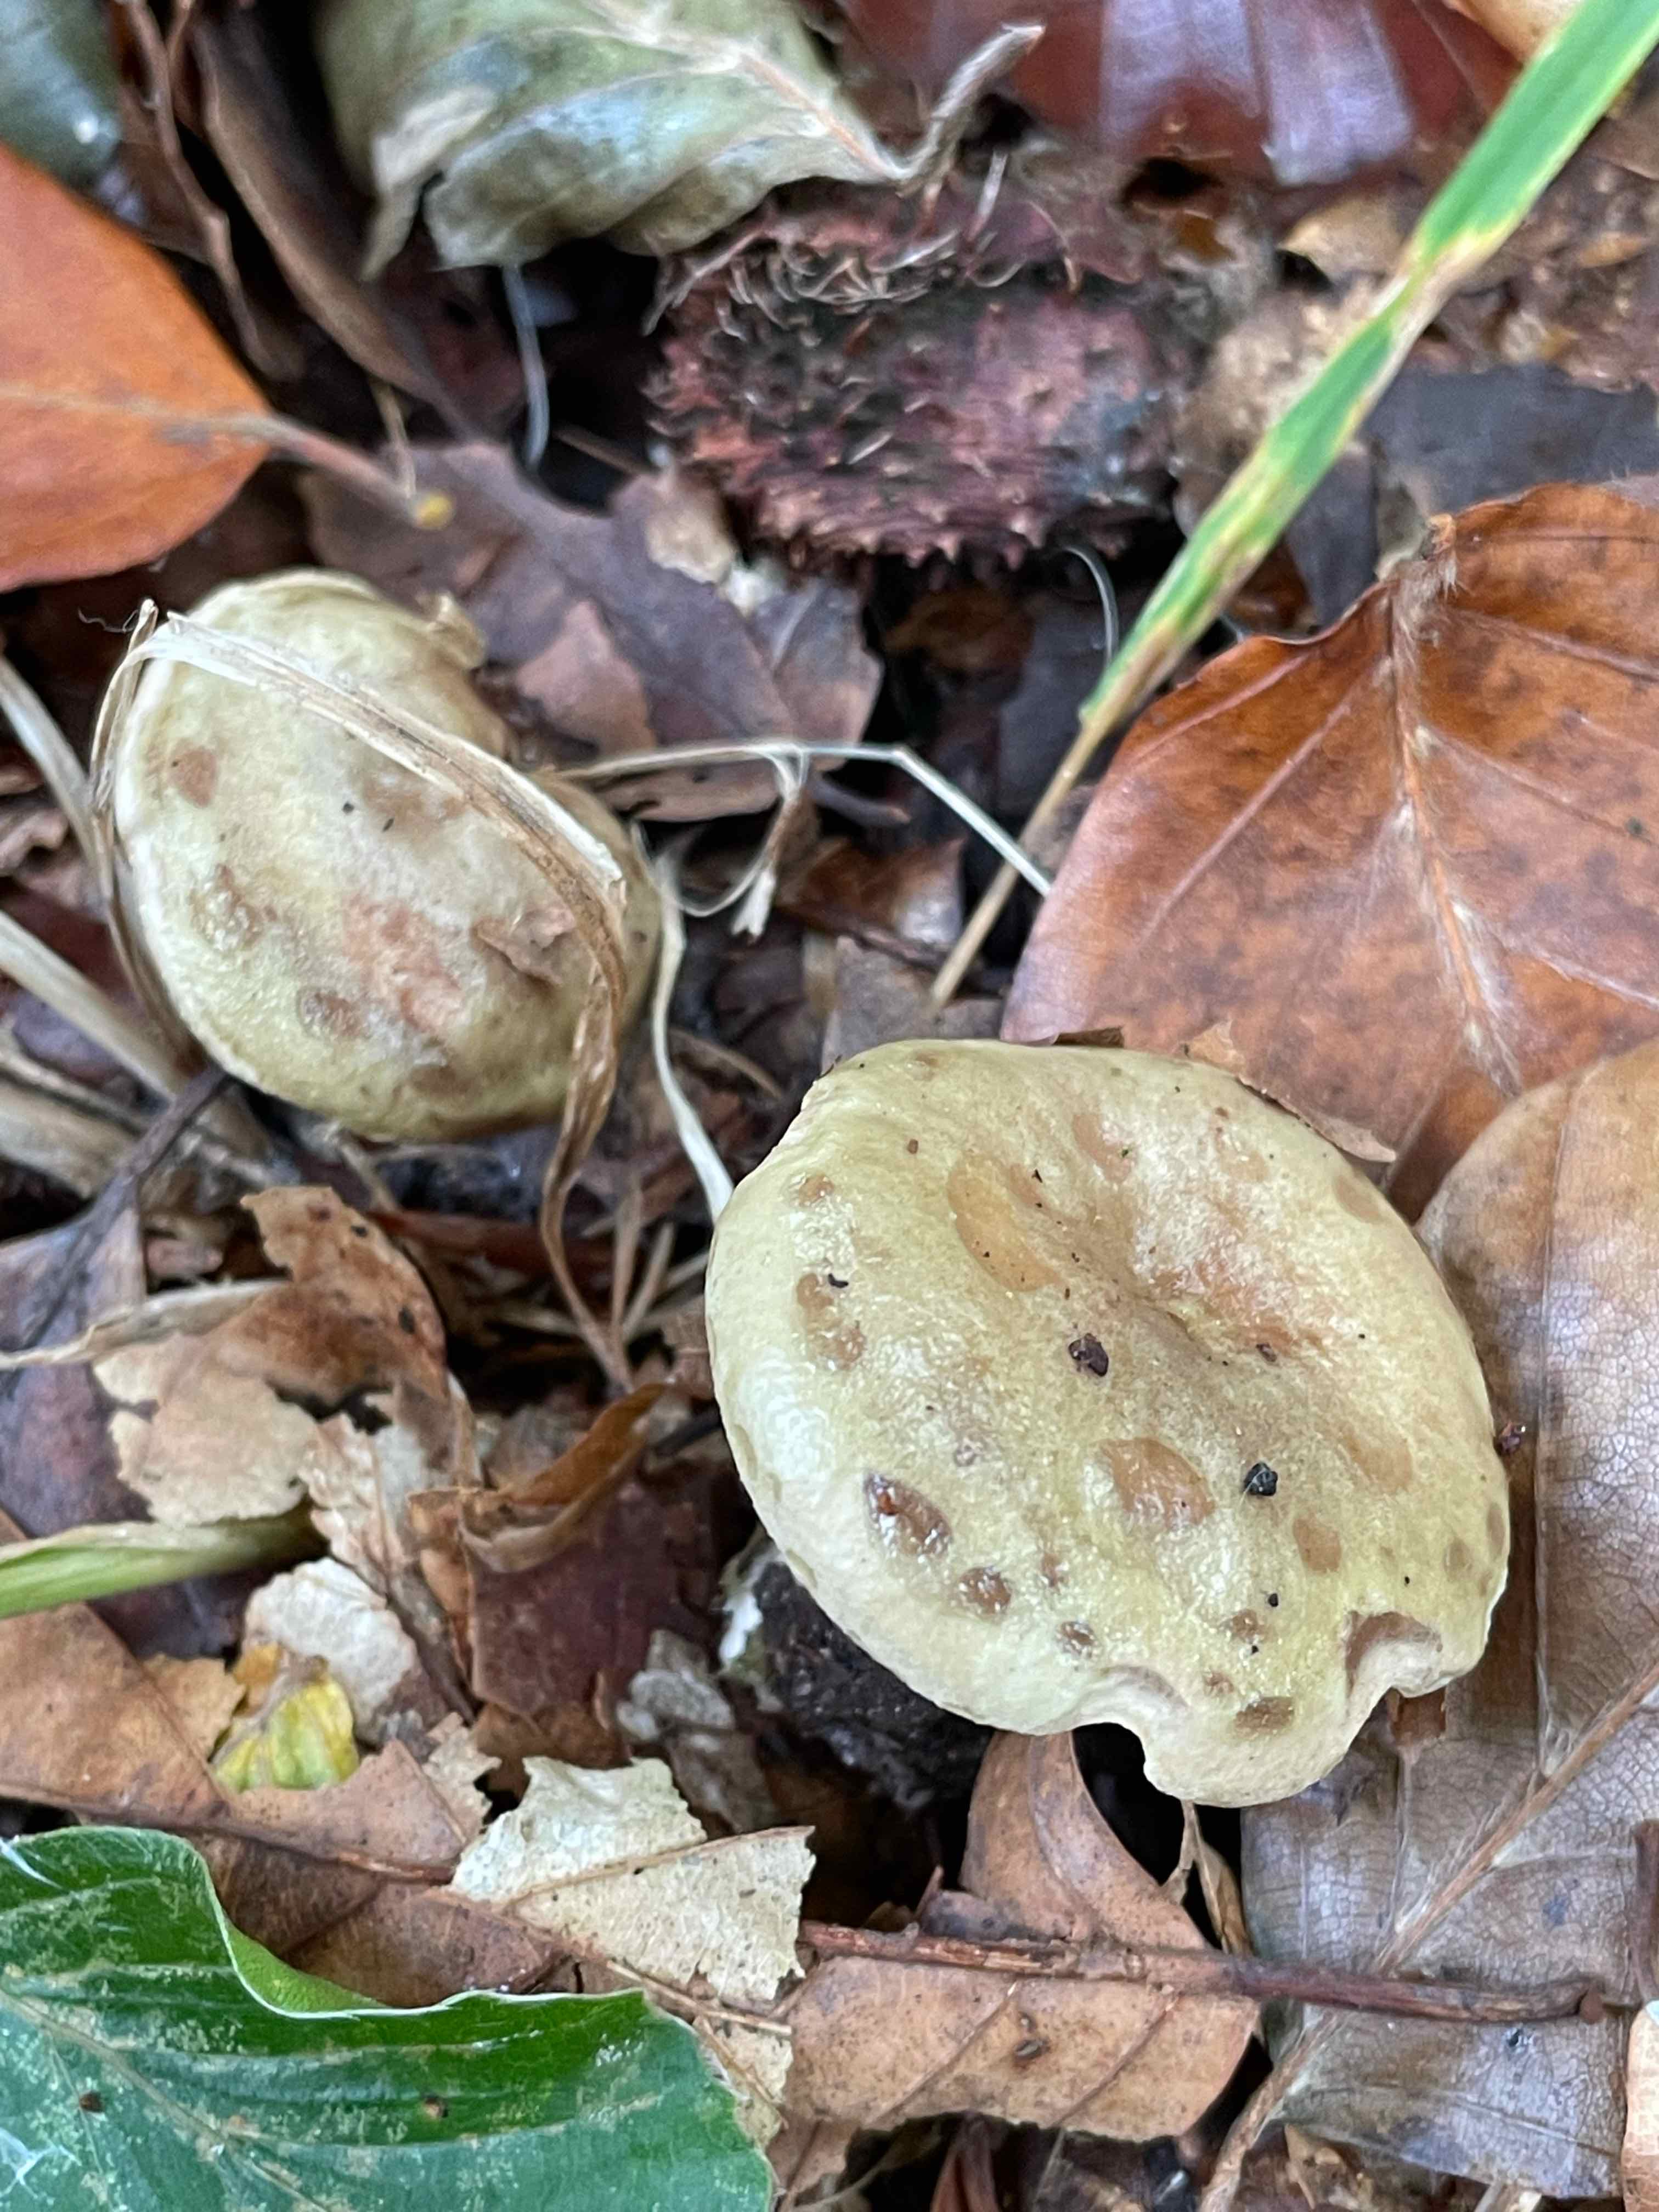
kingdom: Fungi
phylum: Basidiomycota
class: Agaricomycetes
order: Russulales
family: Russulaceae
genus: Lactarius
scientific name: Lactarius blennius
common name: dråbeplettet mælkehat
